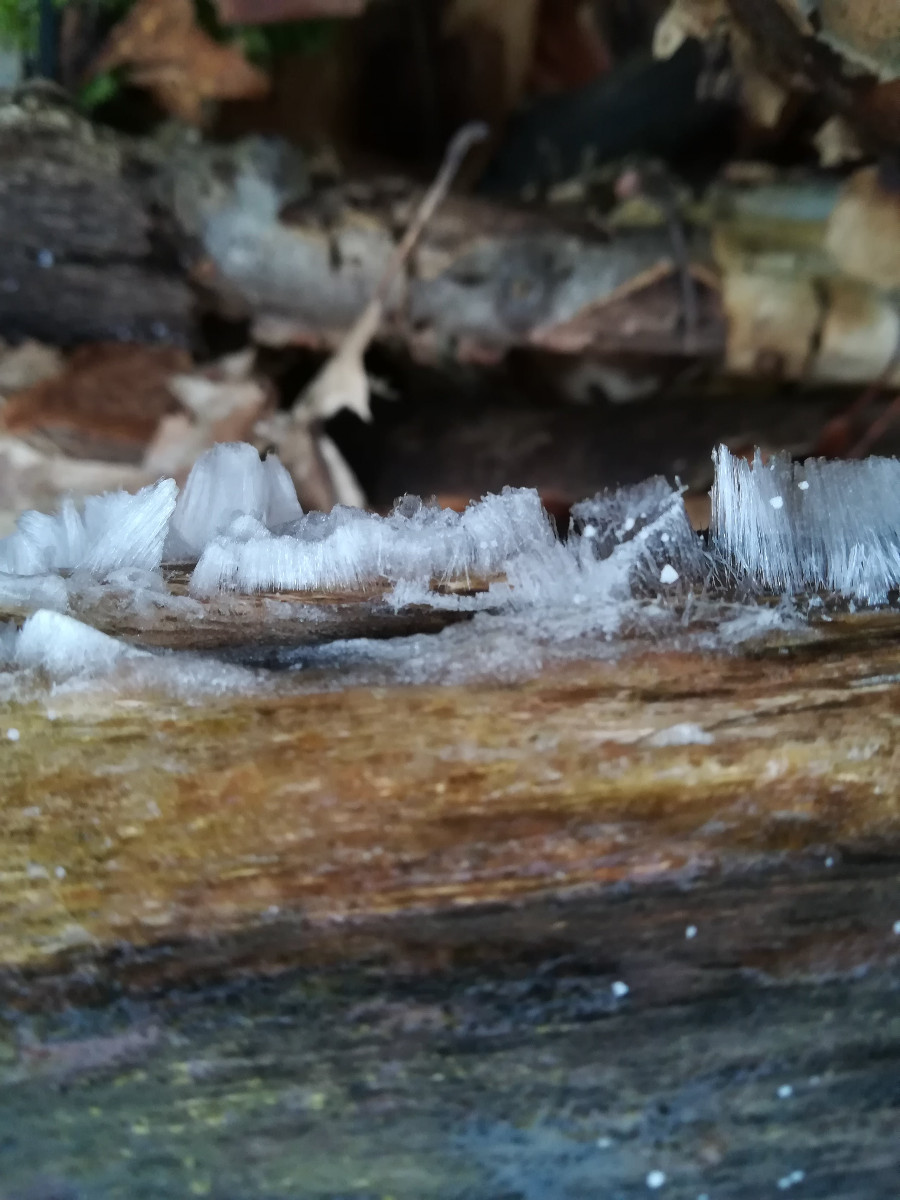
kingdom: Fungi
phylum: Basidiomycota
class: Tremellomycetes
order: Tremellales
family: Exidiaceae
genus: Exidiopsis
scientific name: Exidiopsis effusa
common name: smuk bævrehinde
